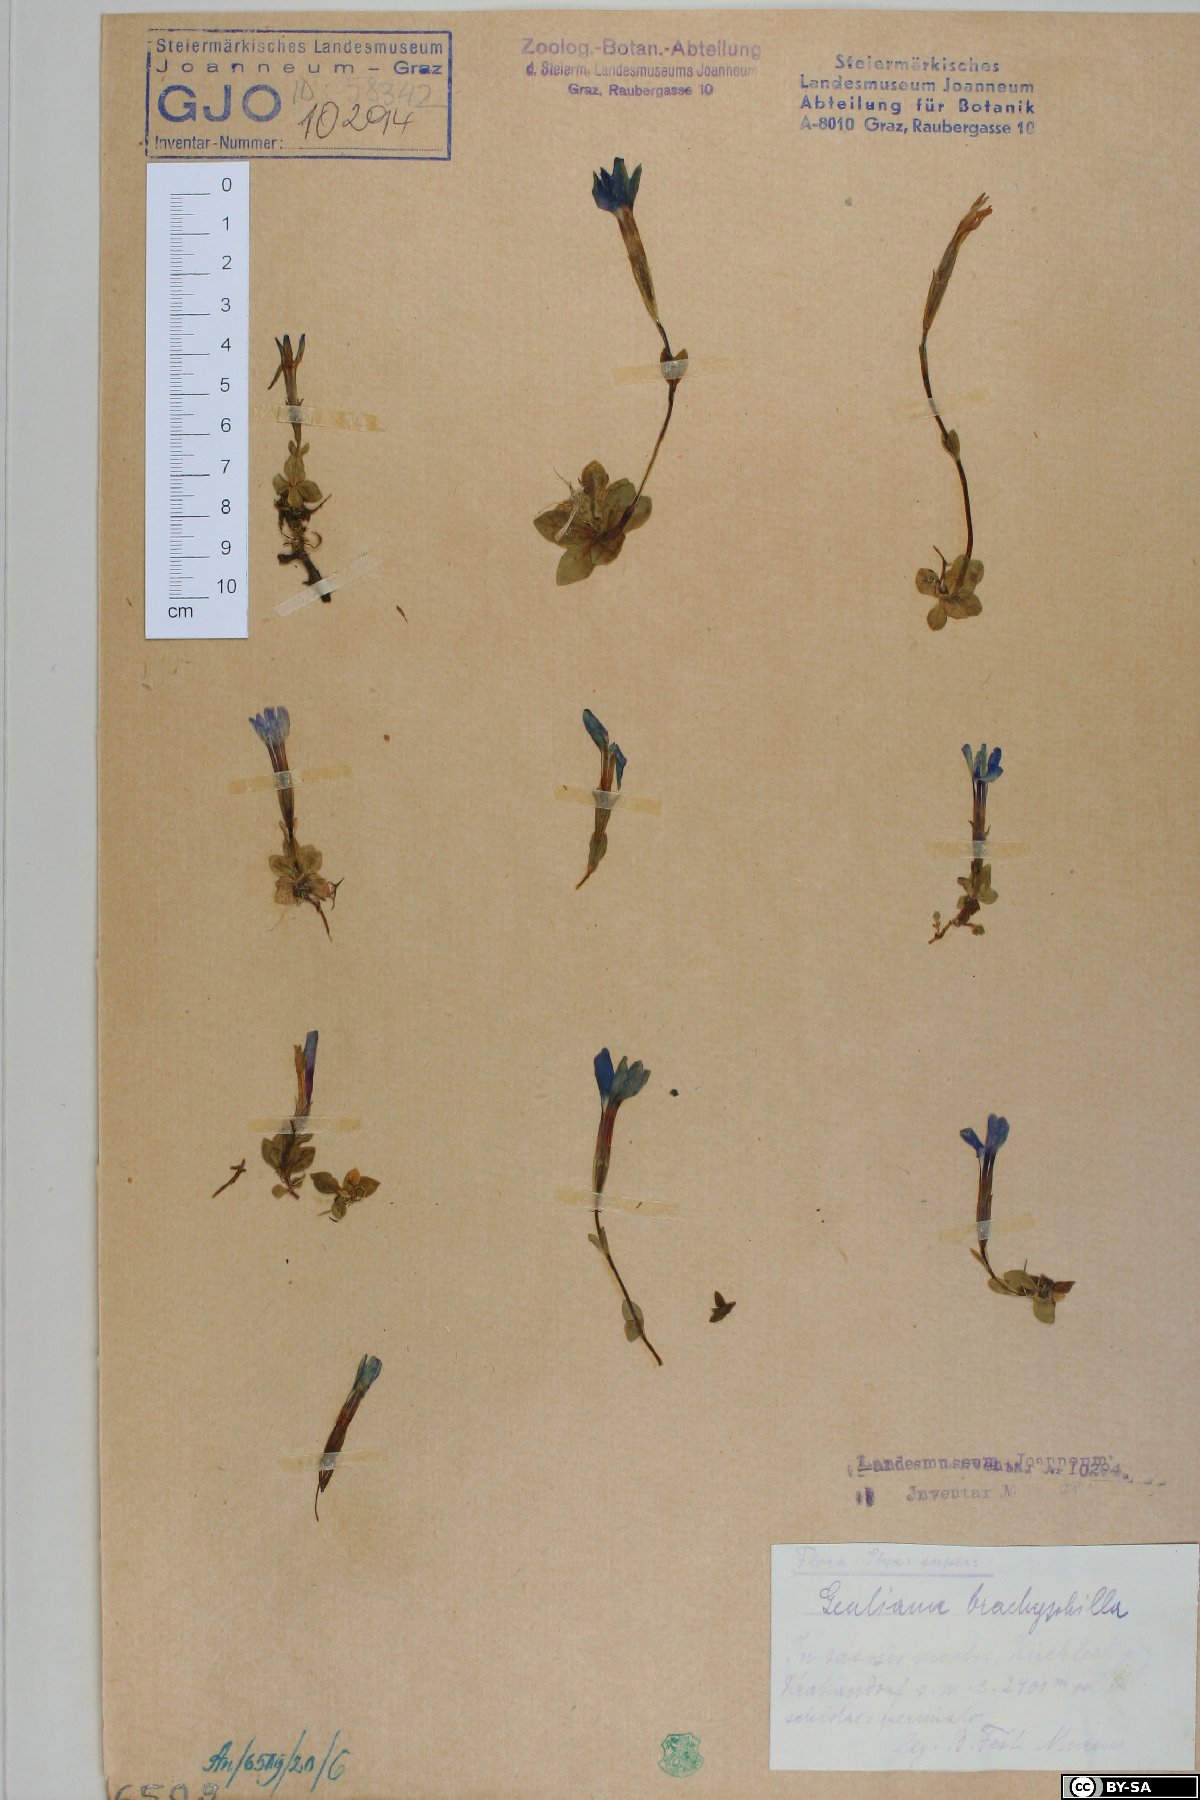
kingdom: Plantae
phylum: Tracheophyta
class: Magnoliopsida
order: Gentianales
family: Gentianaceae
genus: Gentiana
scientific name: Gentiana brachyphylla
